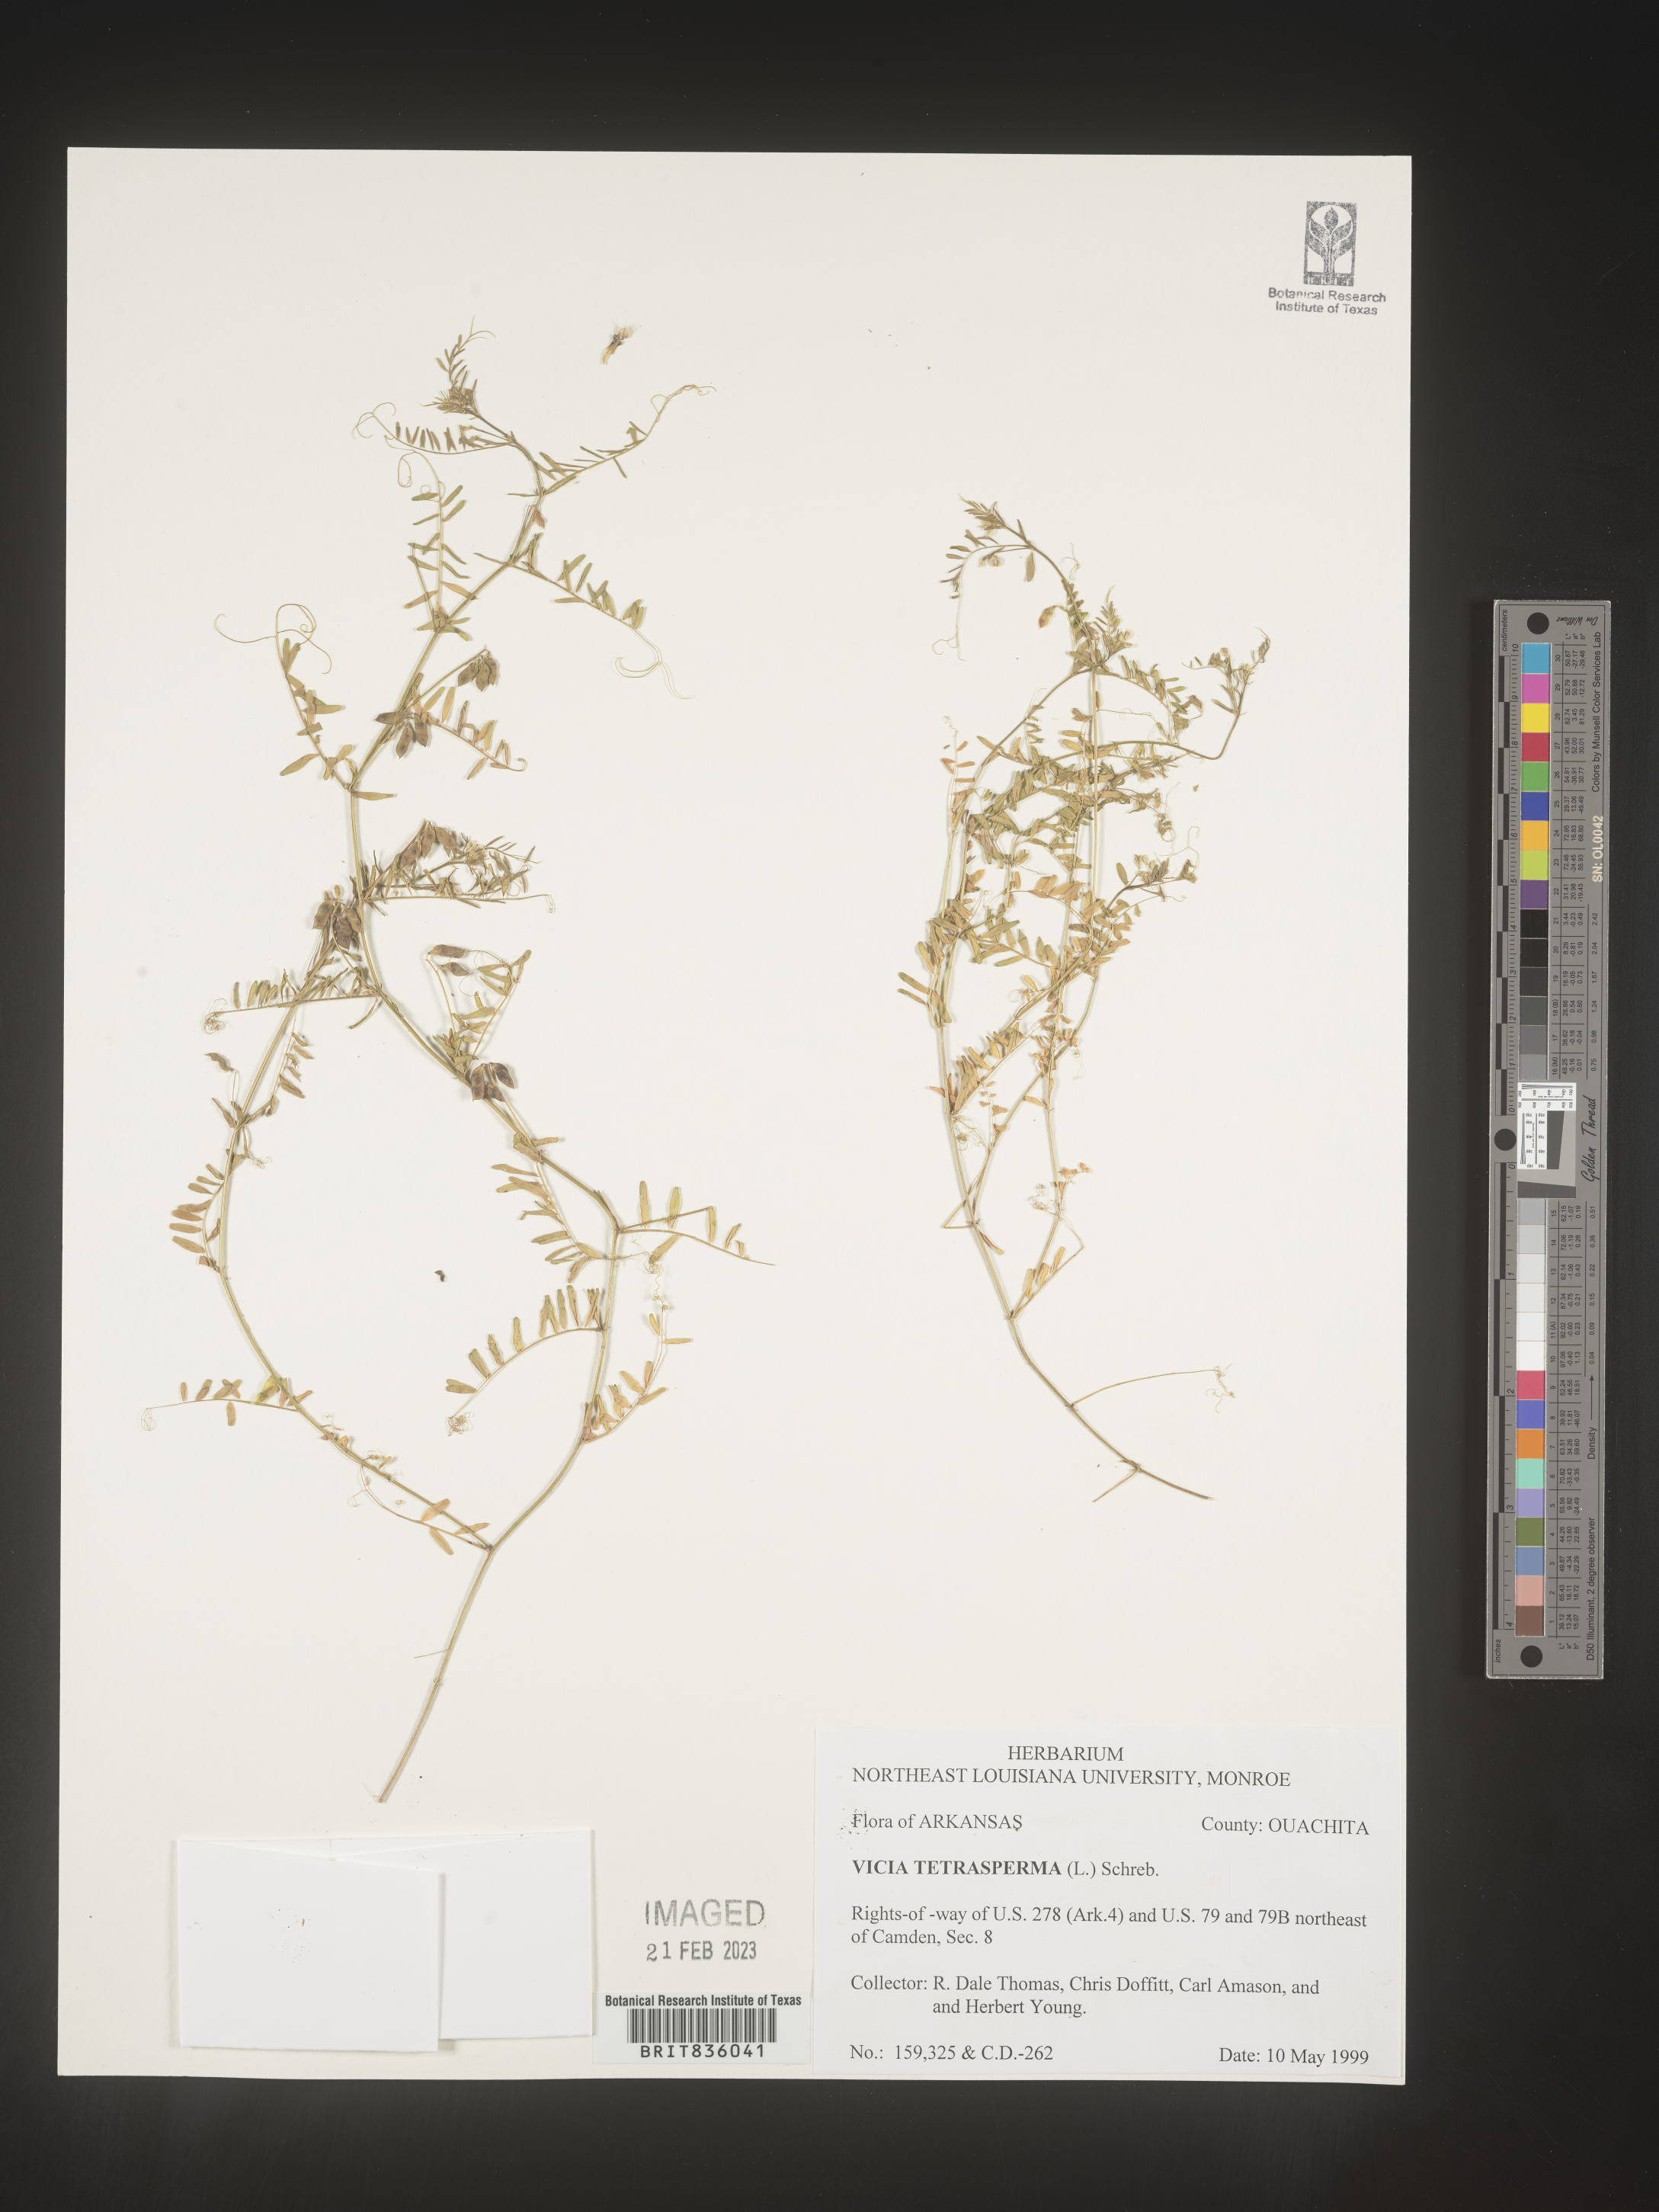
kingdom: Plantae
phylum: Tracheophyta
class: Magnoliopsida
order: Fabales
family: Fabaceae
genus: Vicia
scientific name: Vicia tetrasperma
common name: Smooth tare
